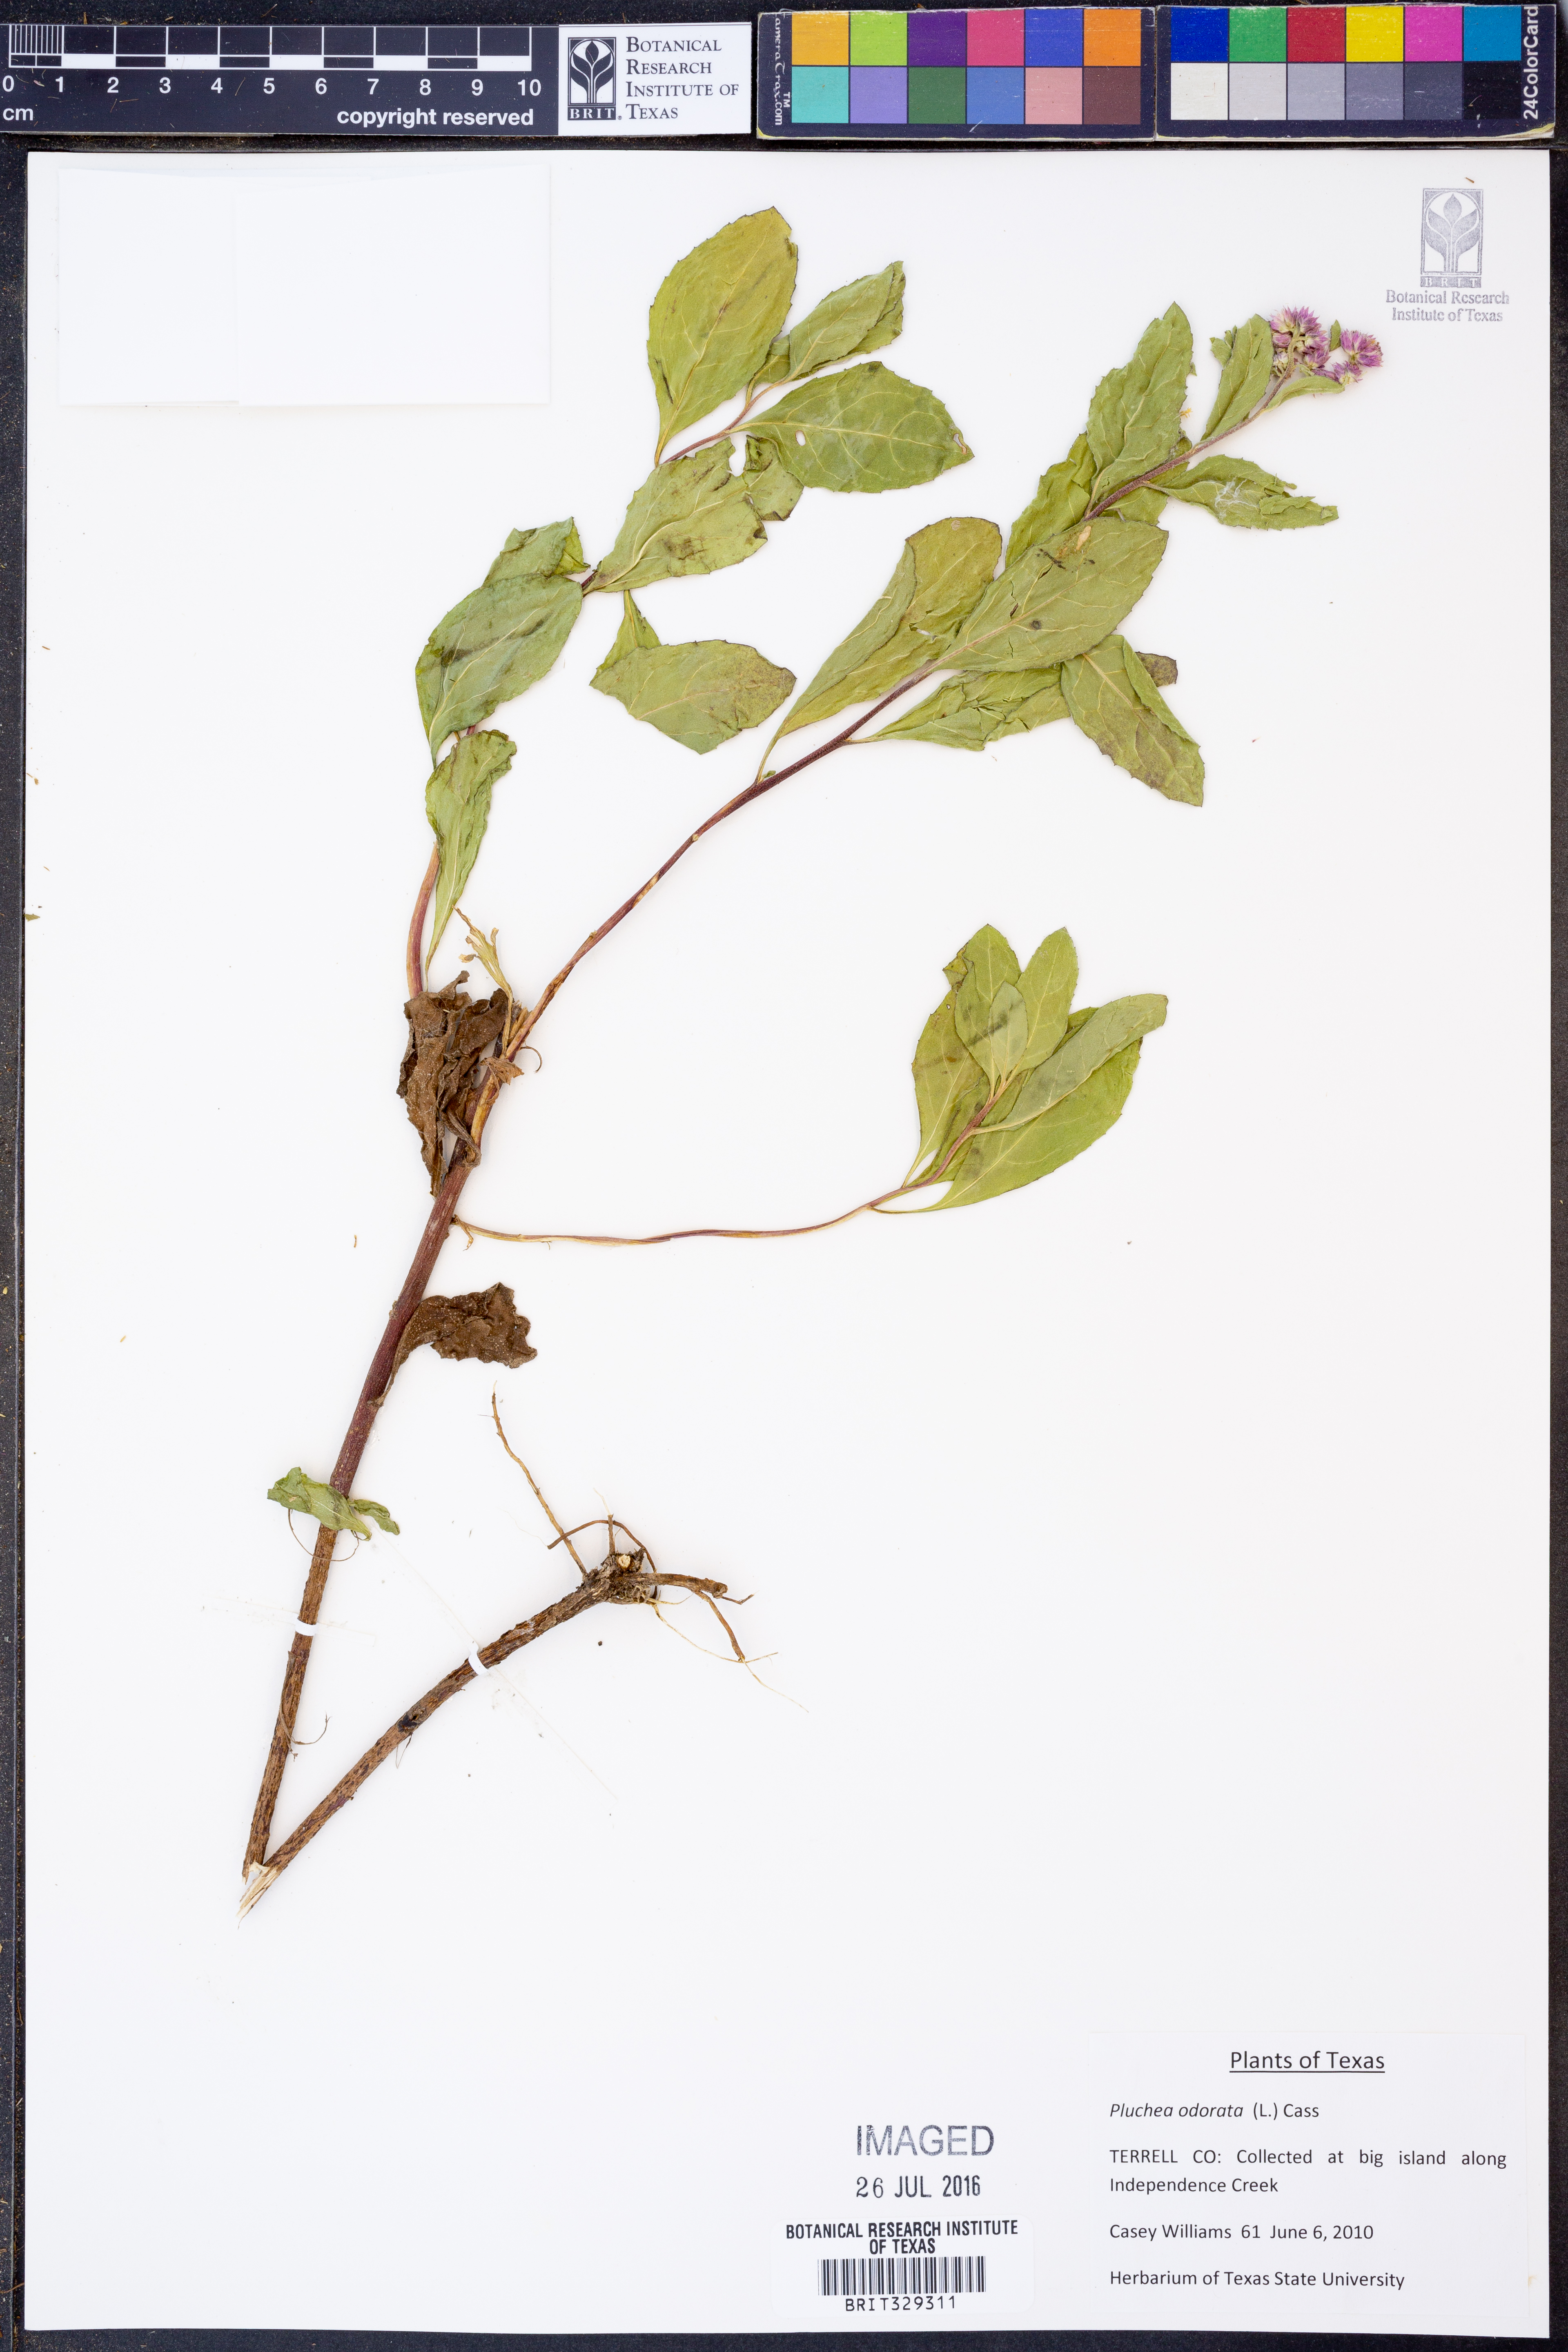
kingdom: Plantae
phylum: Tracheophyta
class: Magnoliopsida
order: Asterales
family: Asteraceae
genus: Pluchea
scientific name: Pluchea odorata
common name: Saltmarsh fleabane
